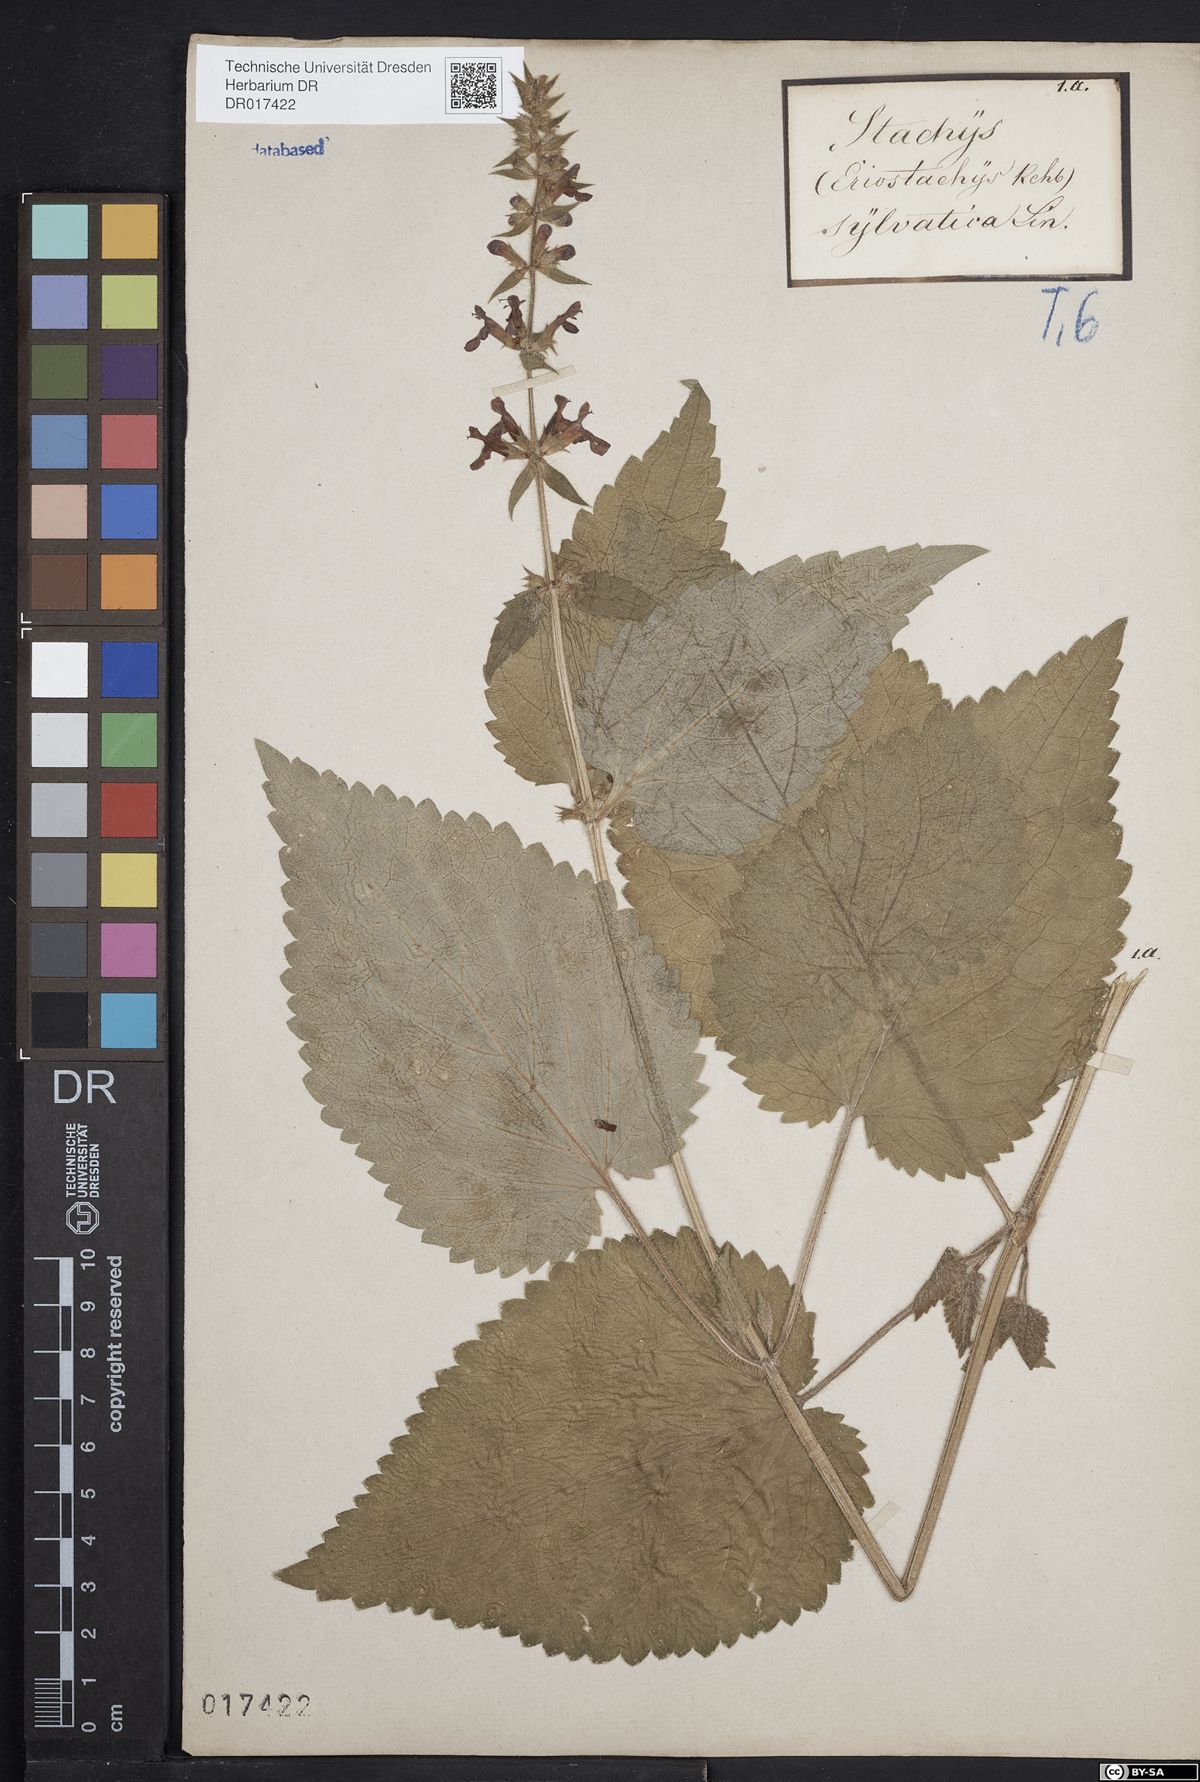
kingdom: Plantae
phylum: Tracheophyta
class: Magnoliopsida
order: Lamiales
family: Lamiaceae
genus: Stachys
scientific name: Stachys sylvatica
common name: Hedge woundwort
